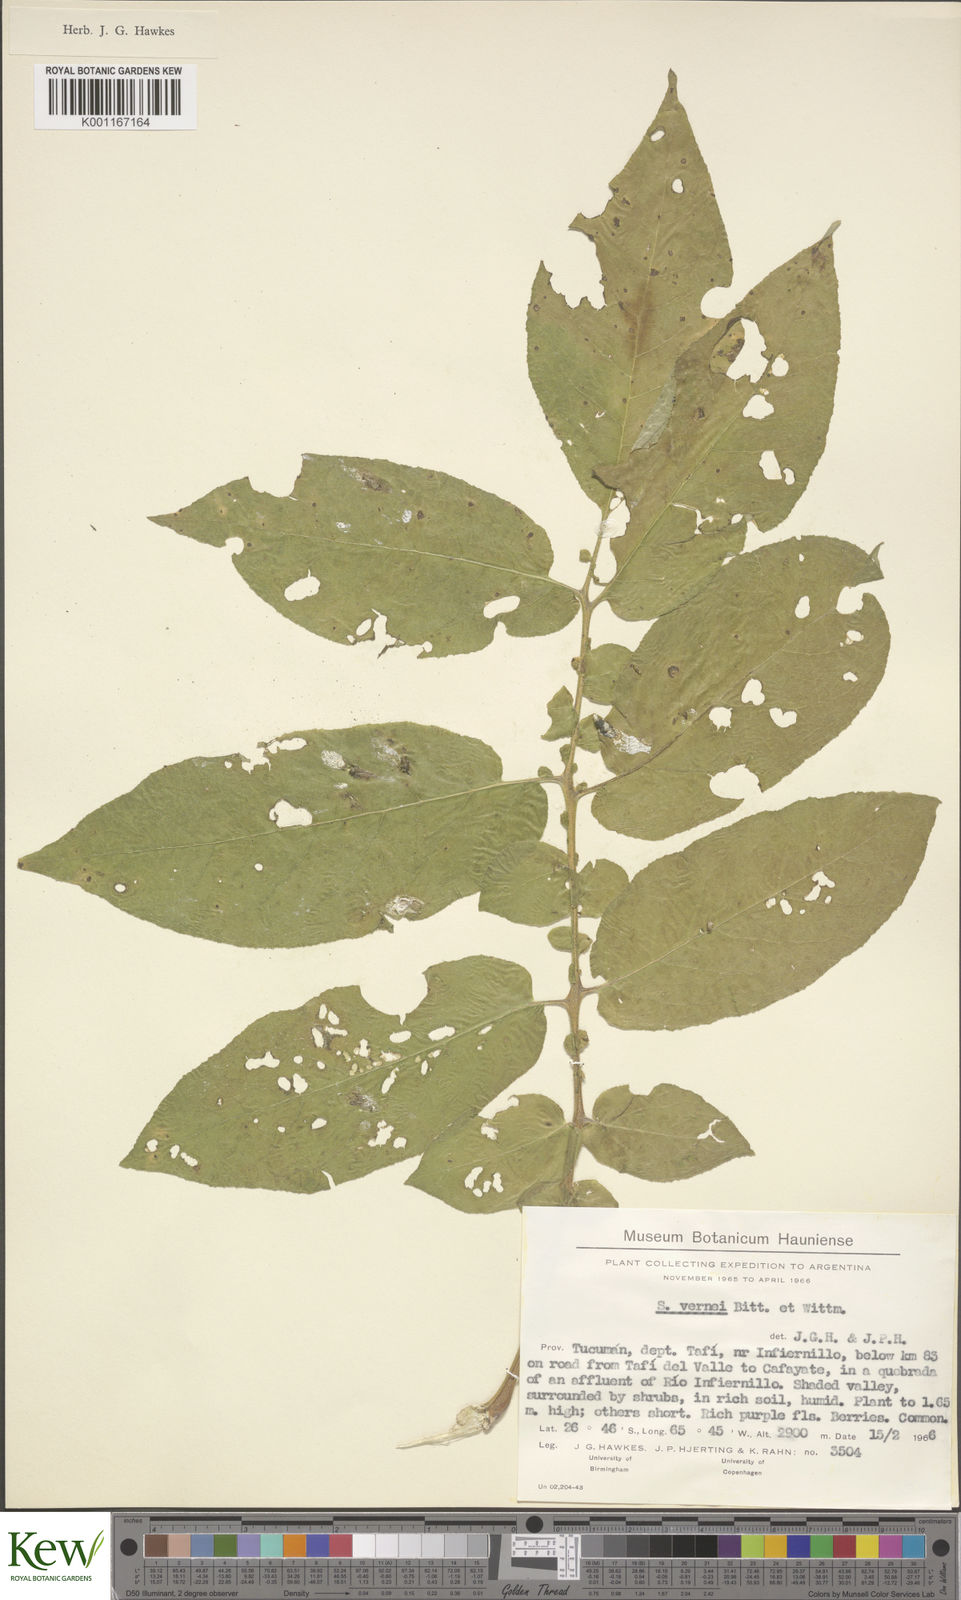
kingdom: Plantae
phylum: Tracheophyta
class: Magnoliopsida
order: Solanales
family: Solanaceae
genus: Solanum
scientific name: Solanum vernei
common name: Purple potato
